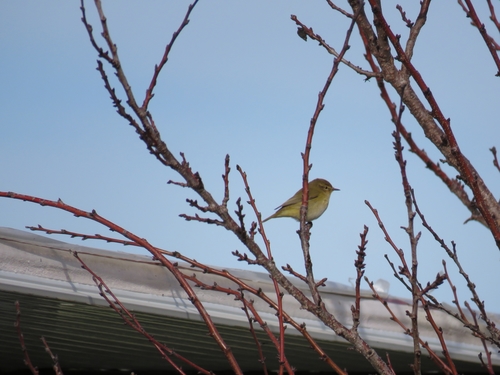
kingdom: Animalia
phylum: Chordata
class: Aves
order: Passeriformes
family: Phylloscopidae
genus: Phylloscopus
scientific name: Phylloscopus collybita
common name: Common chiffchaff
